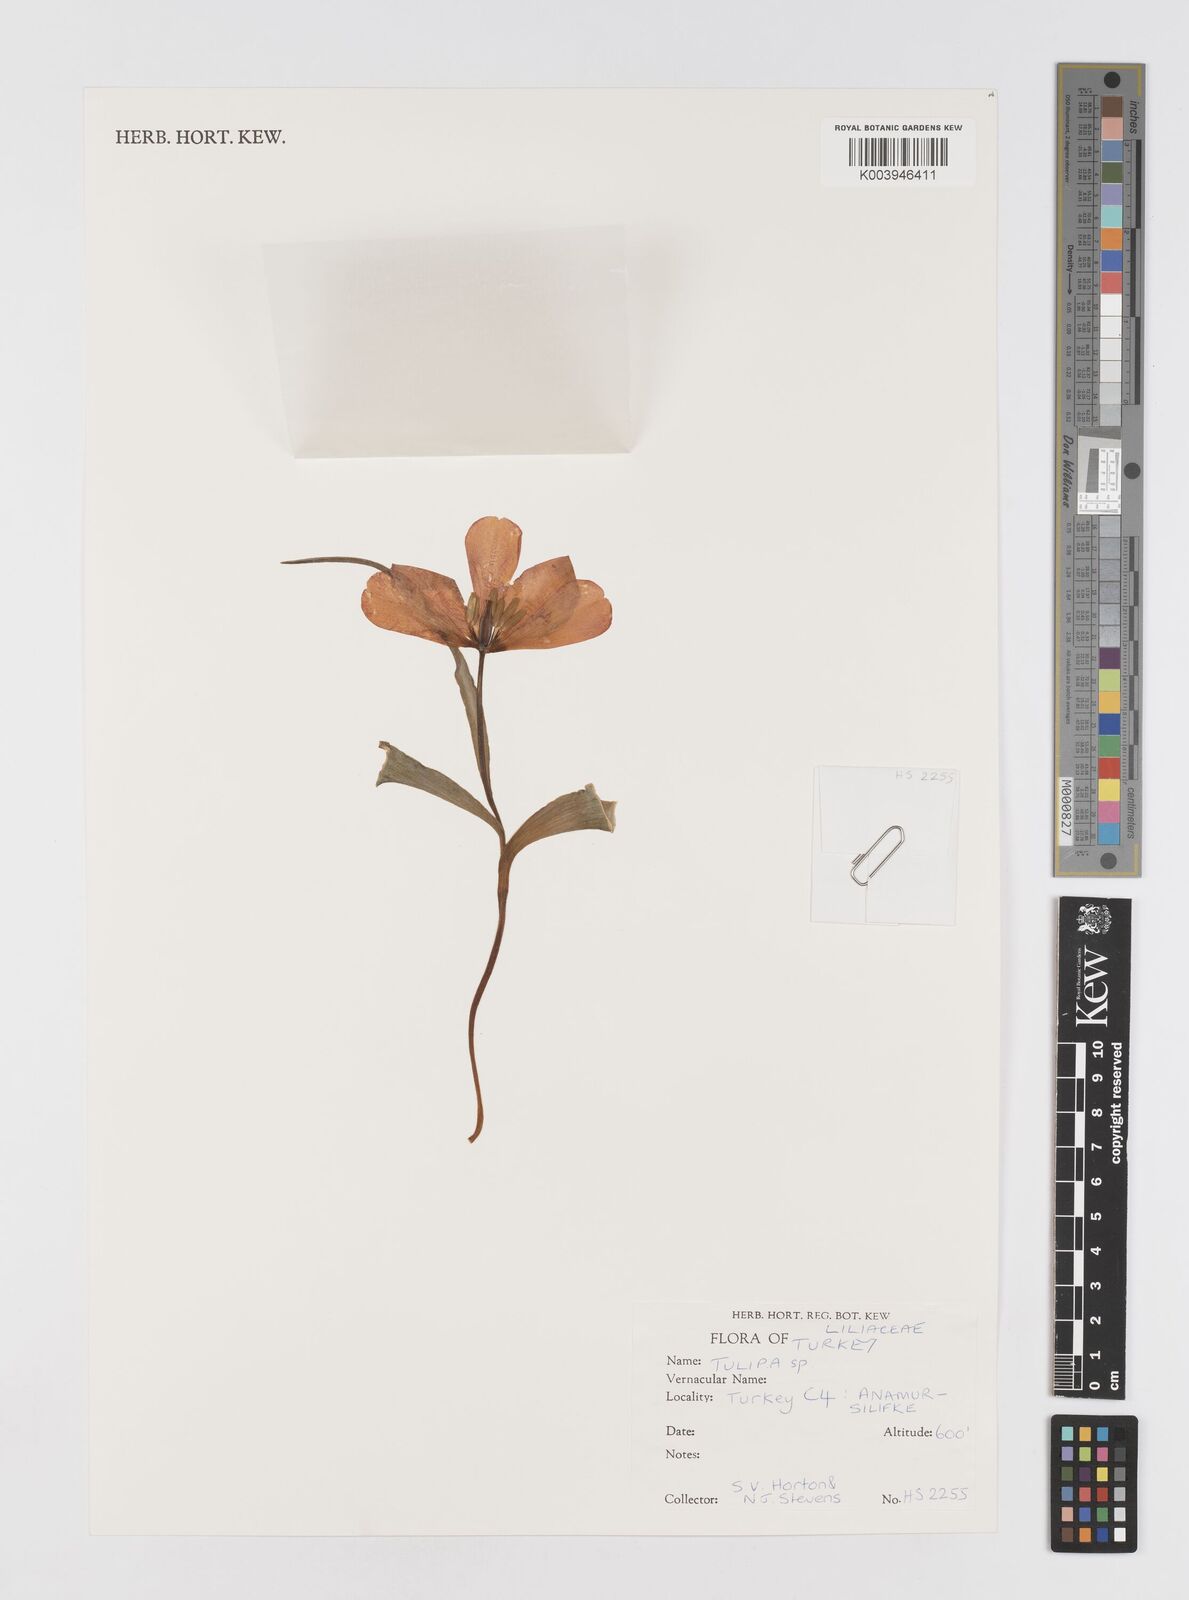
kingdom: Plantae
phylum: Tracheophyta
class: Liliopsida
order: Liliales
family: Liliaceae
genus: Tulipa
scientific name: Tulipa
